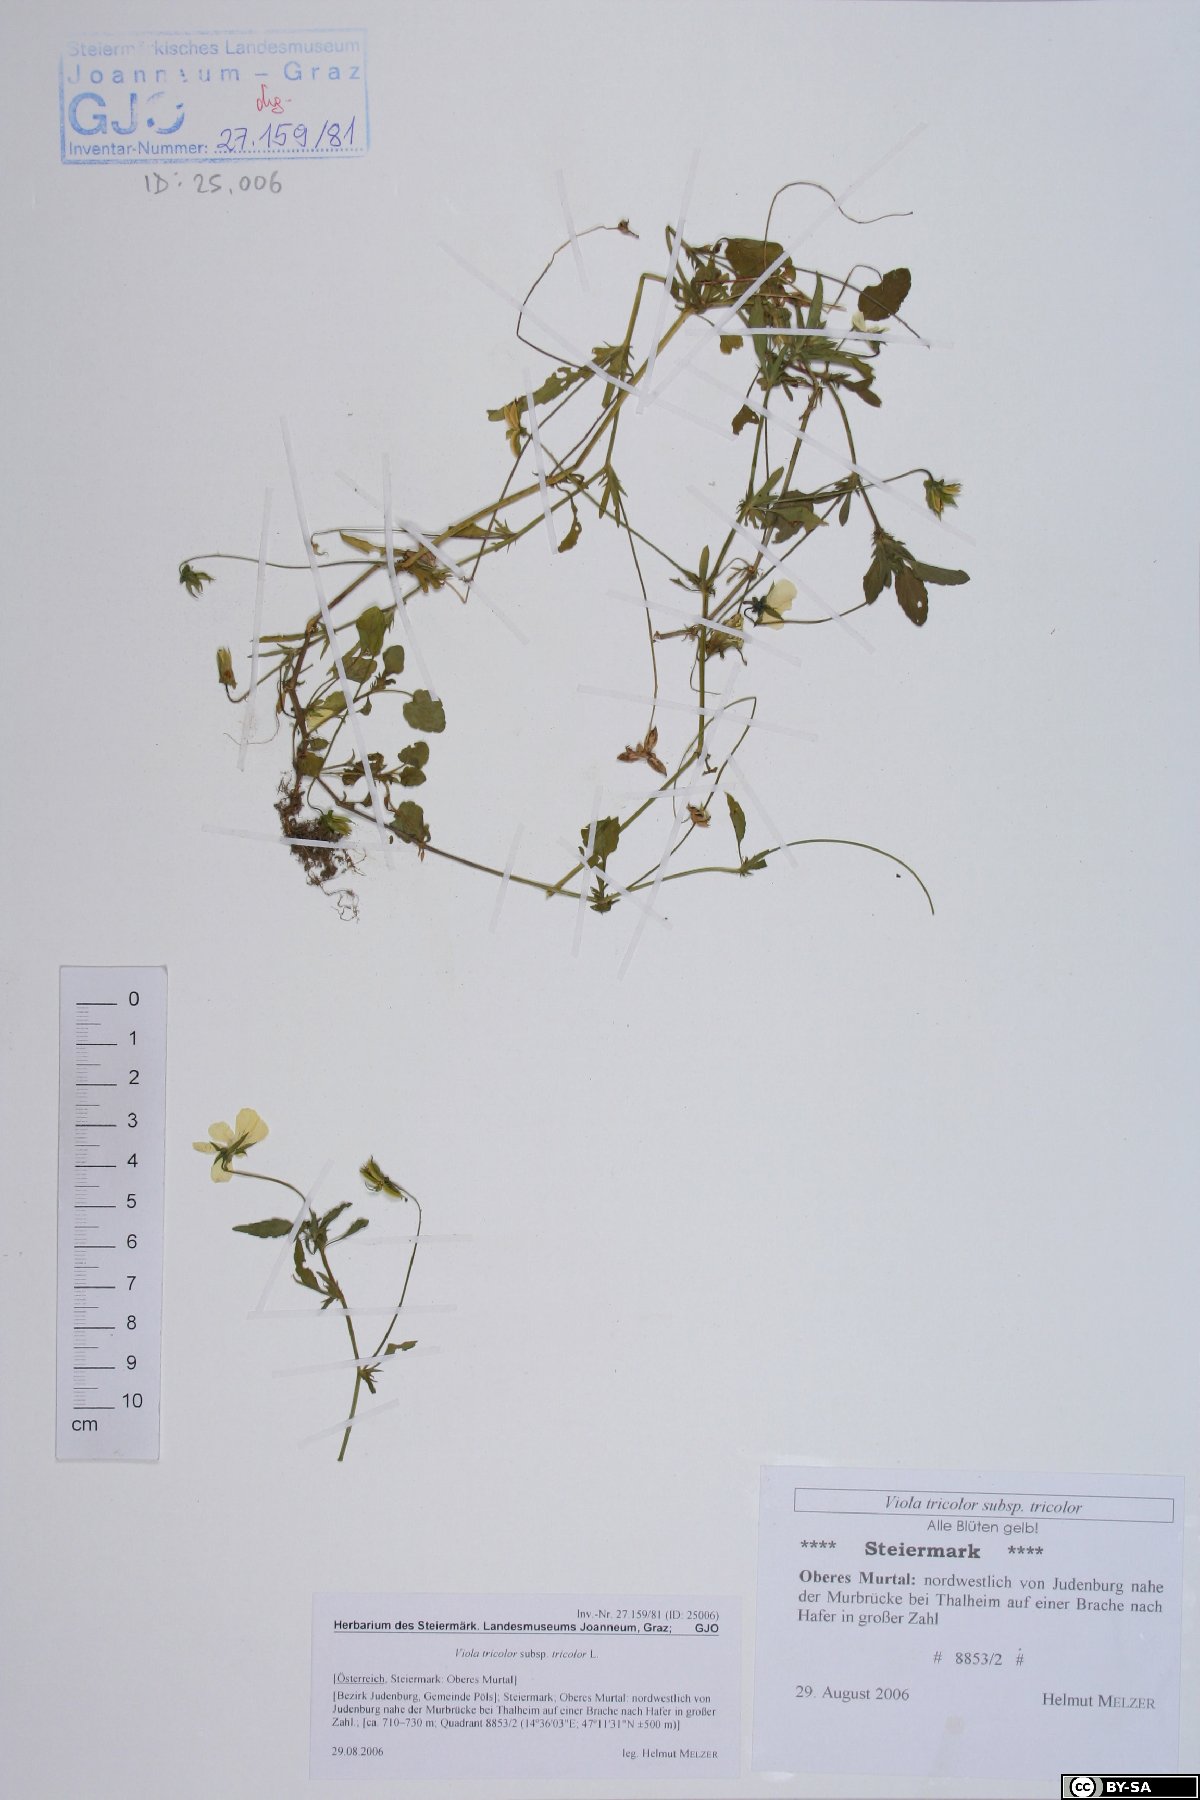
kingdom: Plantae
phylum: Tracheophyta
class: Magnoliopsida
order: Malpighiales
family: Violaceae
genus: Viola
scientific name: Viola tricolor
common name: Pansy
